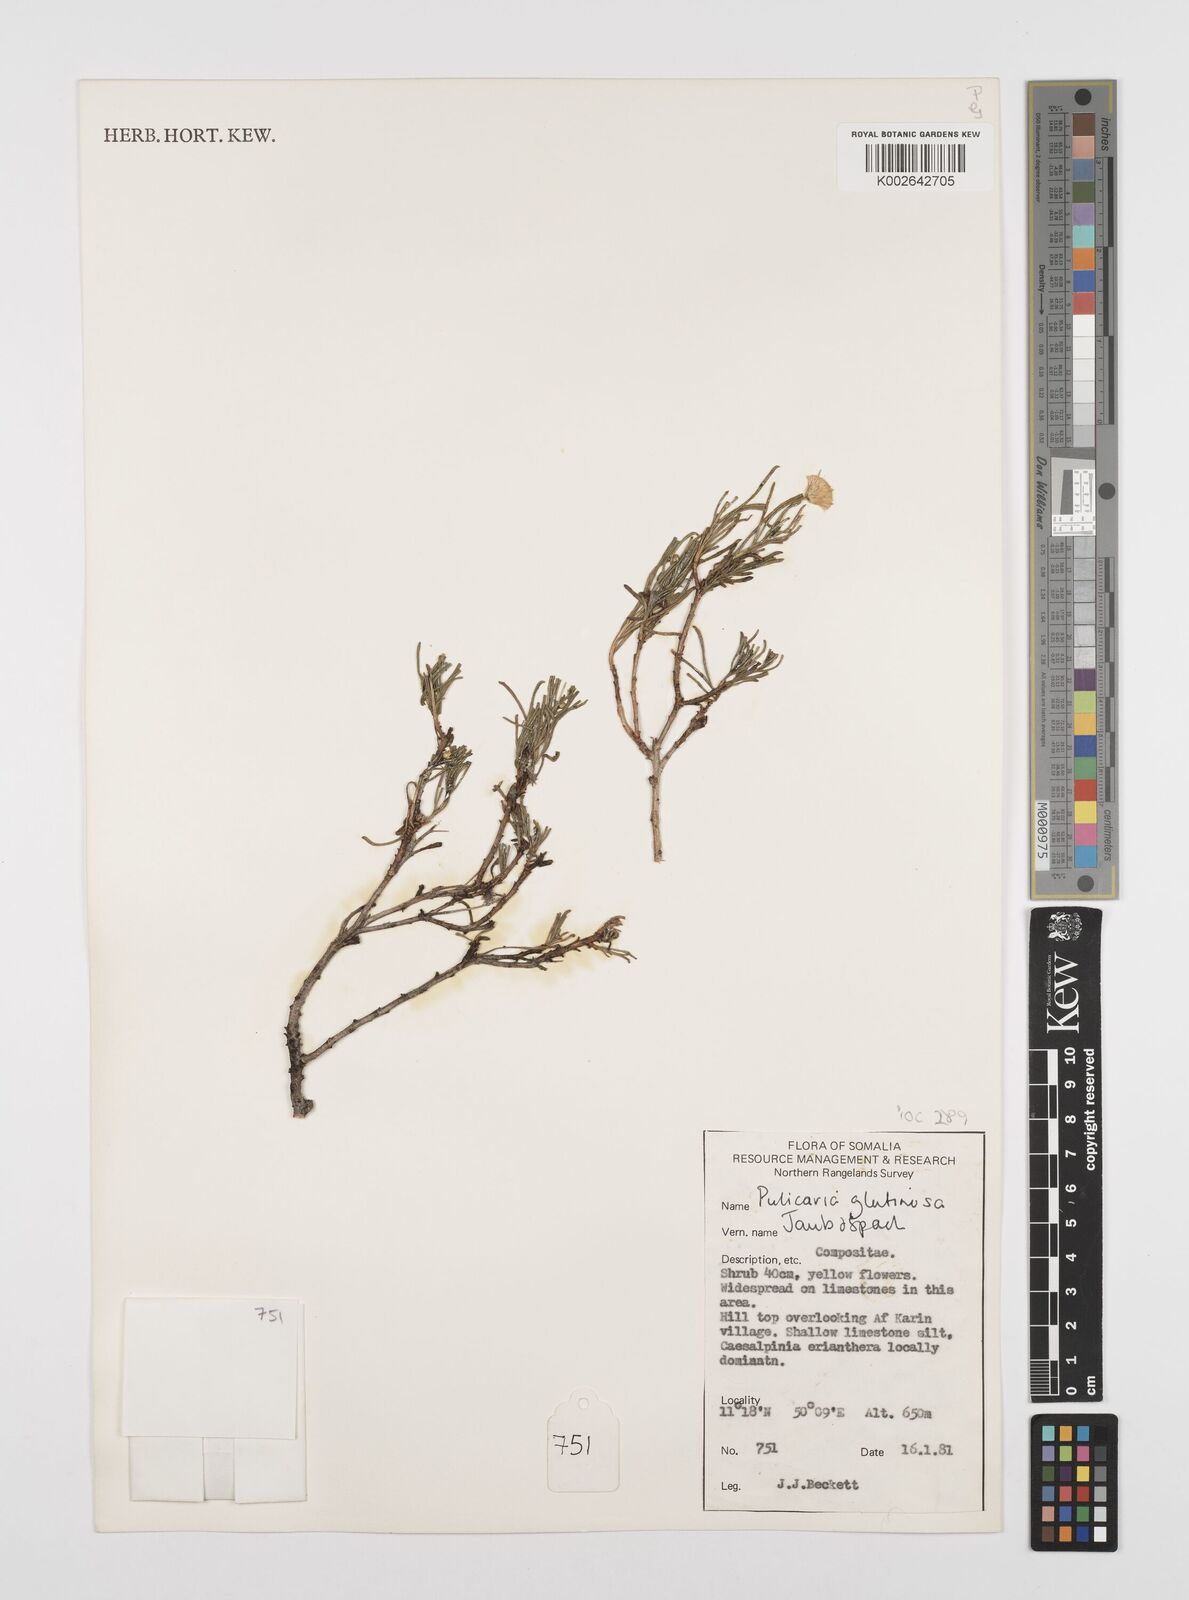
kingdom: Plantae
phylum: Tracheophyta
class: Magnoliopsida
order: Asterales
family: Asteraceae
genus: Pulicaria
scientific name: Pulicaria glutinosa
